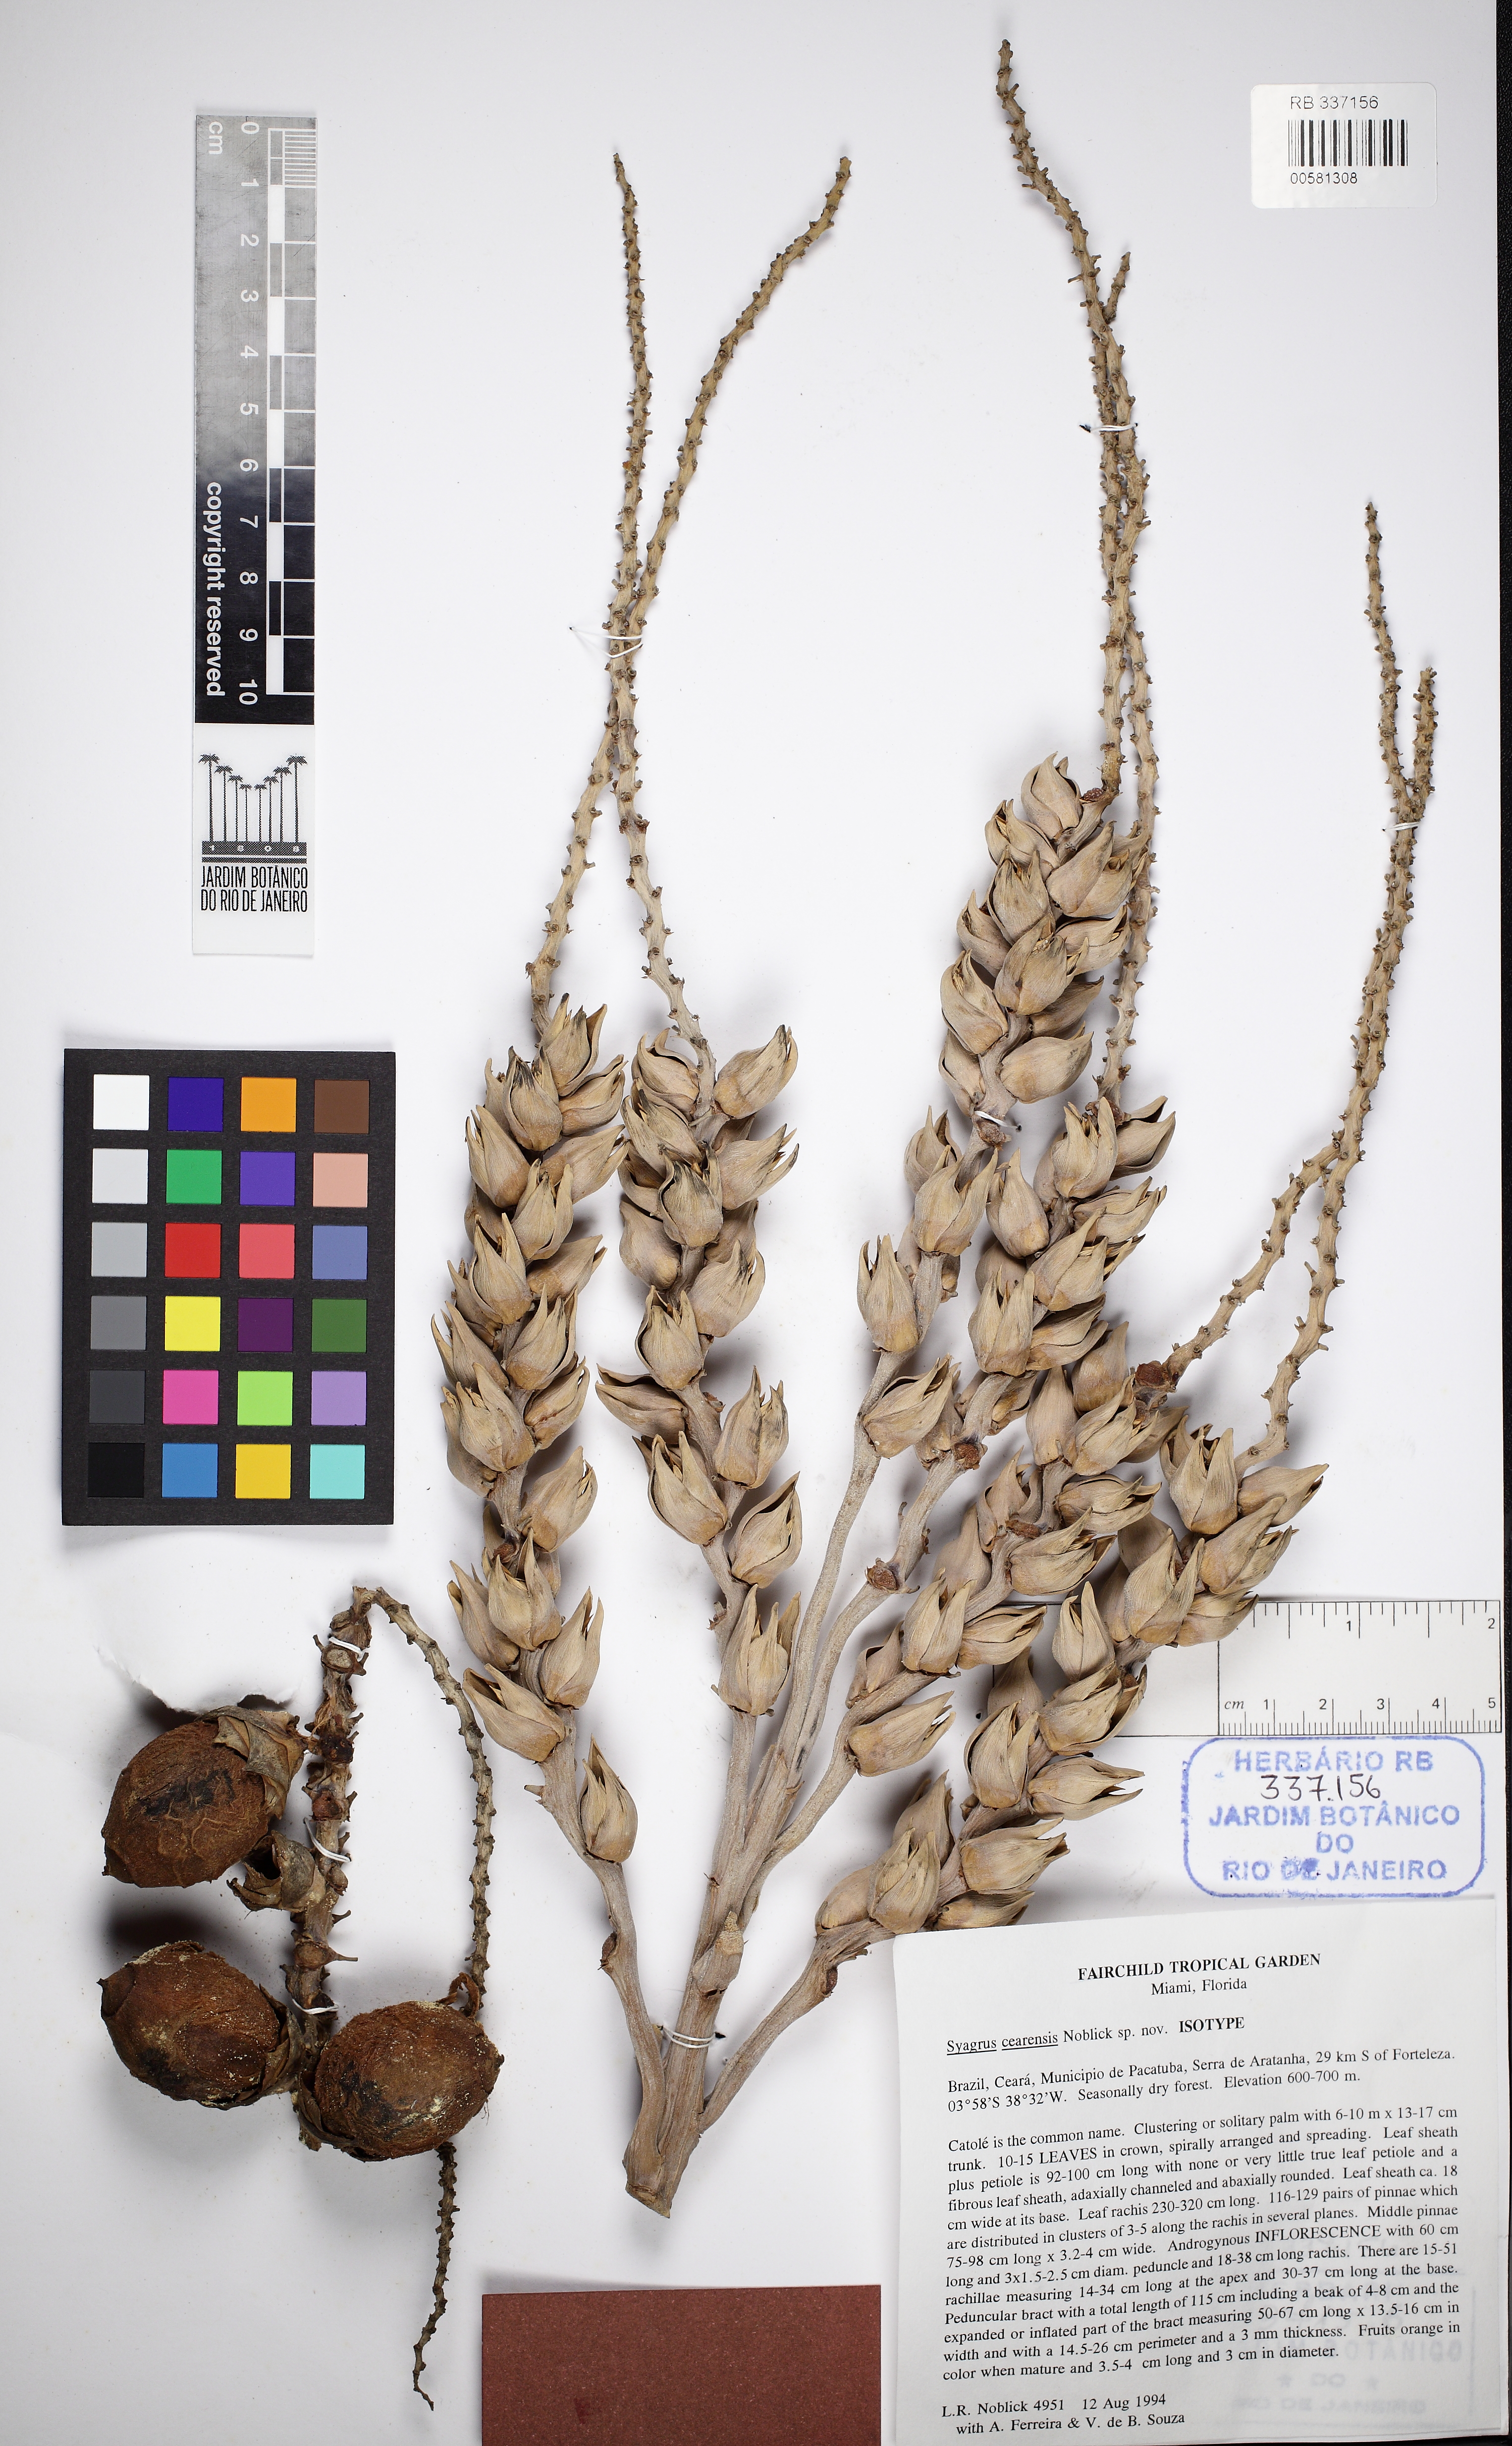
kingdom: Plantae
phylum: Tracheophyta
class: Liliopsida
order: Arecales
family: Arecaceae
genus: Syagrus
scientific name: Syagrus cearensis
